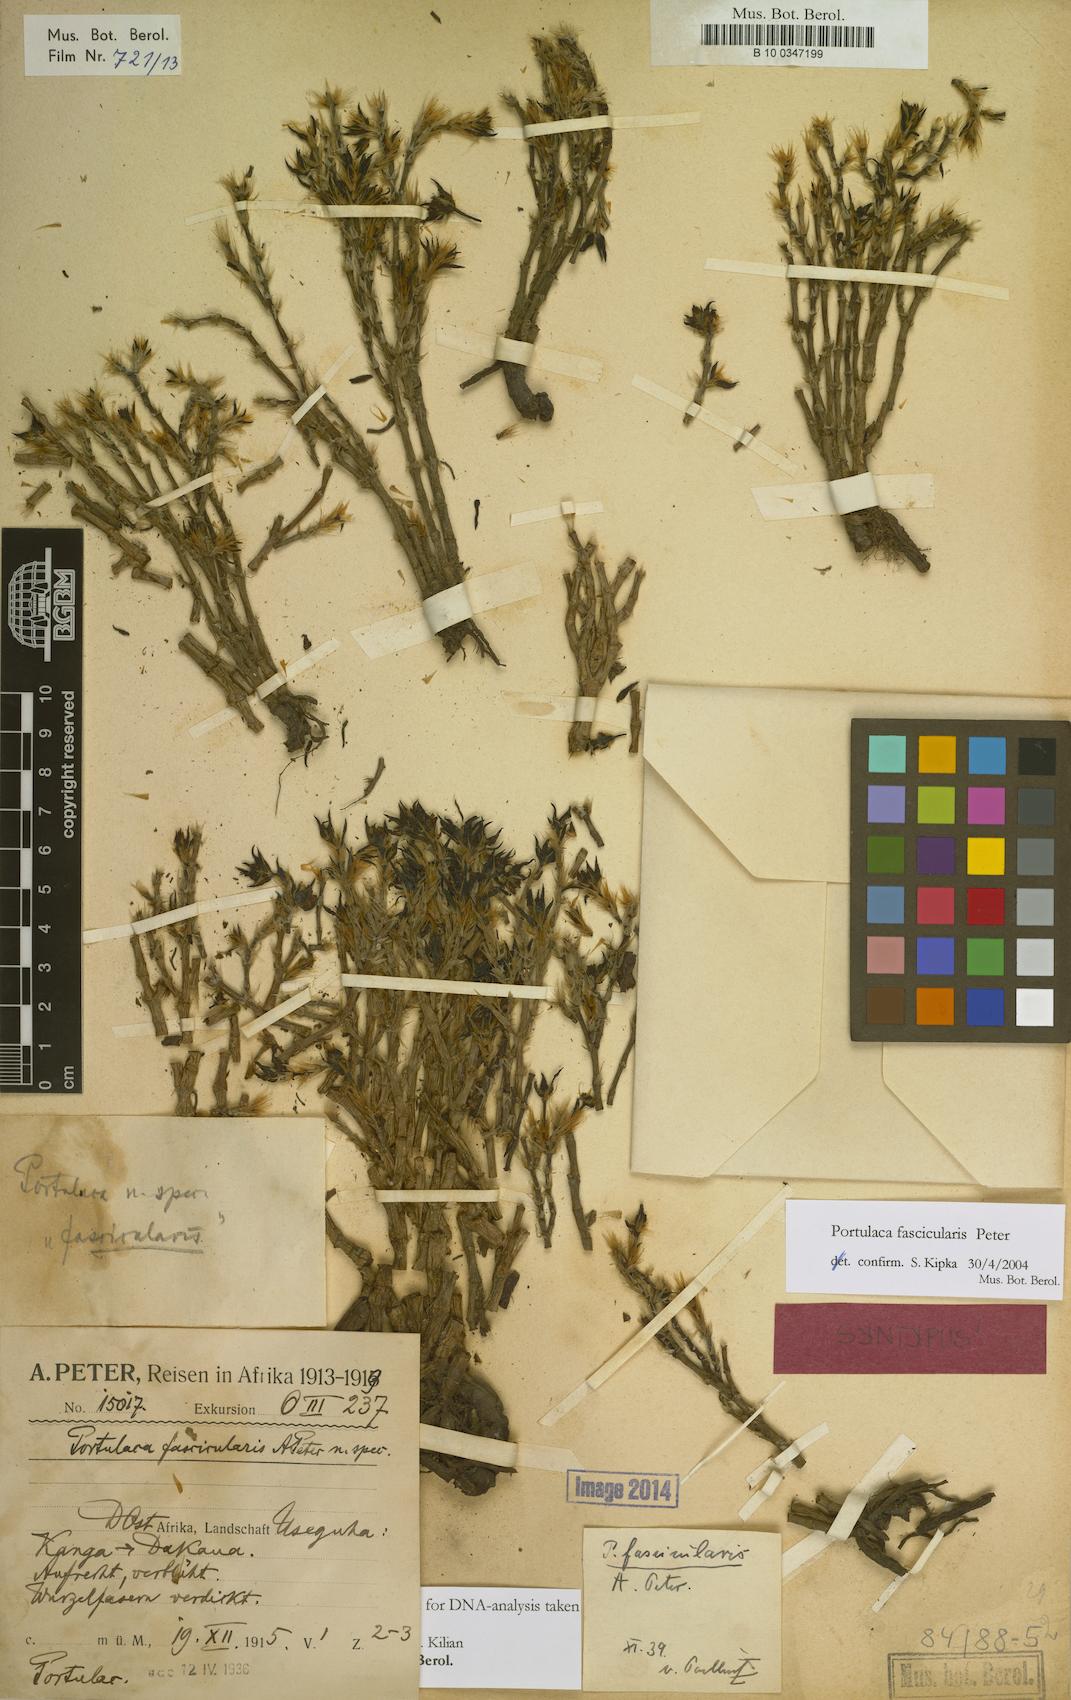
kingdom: Plantae
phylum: Tracheophyta
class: Magnoliopsida
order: Caryophyllales
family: Portulacaceae
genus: Portulaca
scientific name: Portulaca fascicularis
